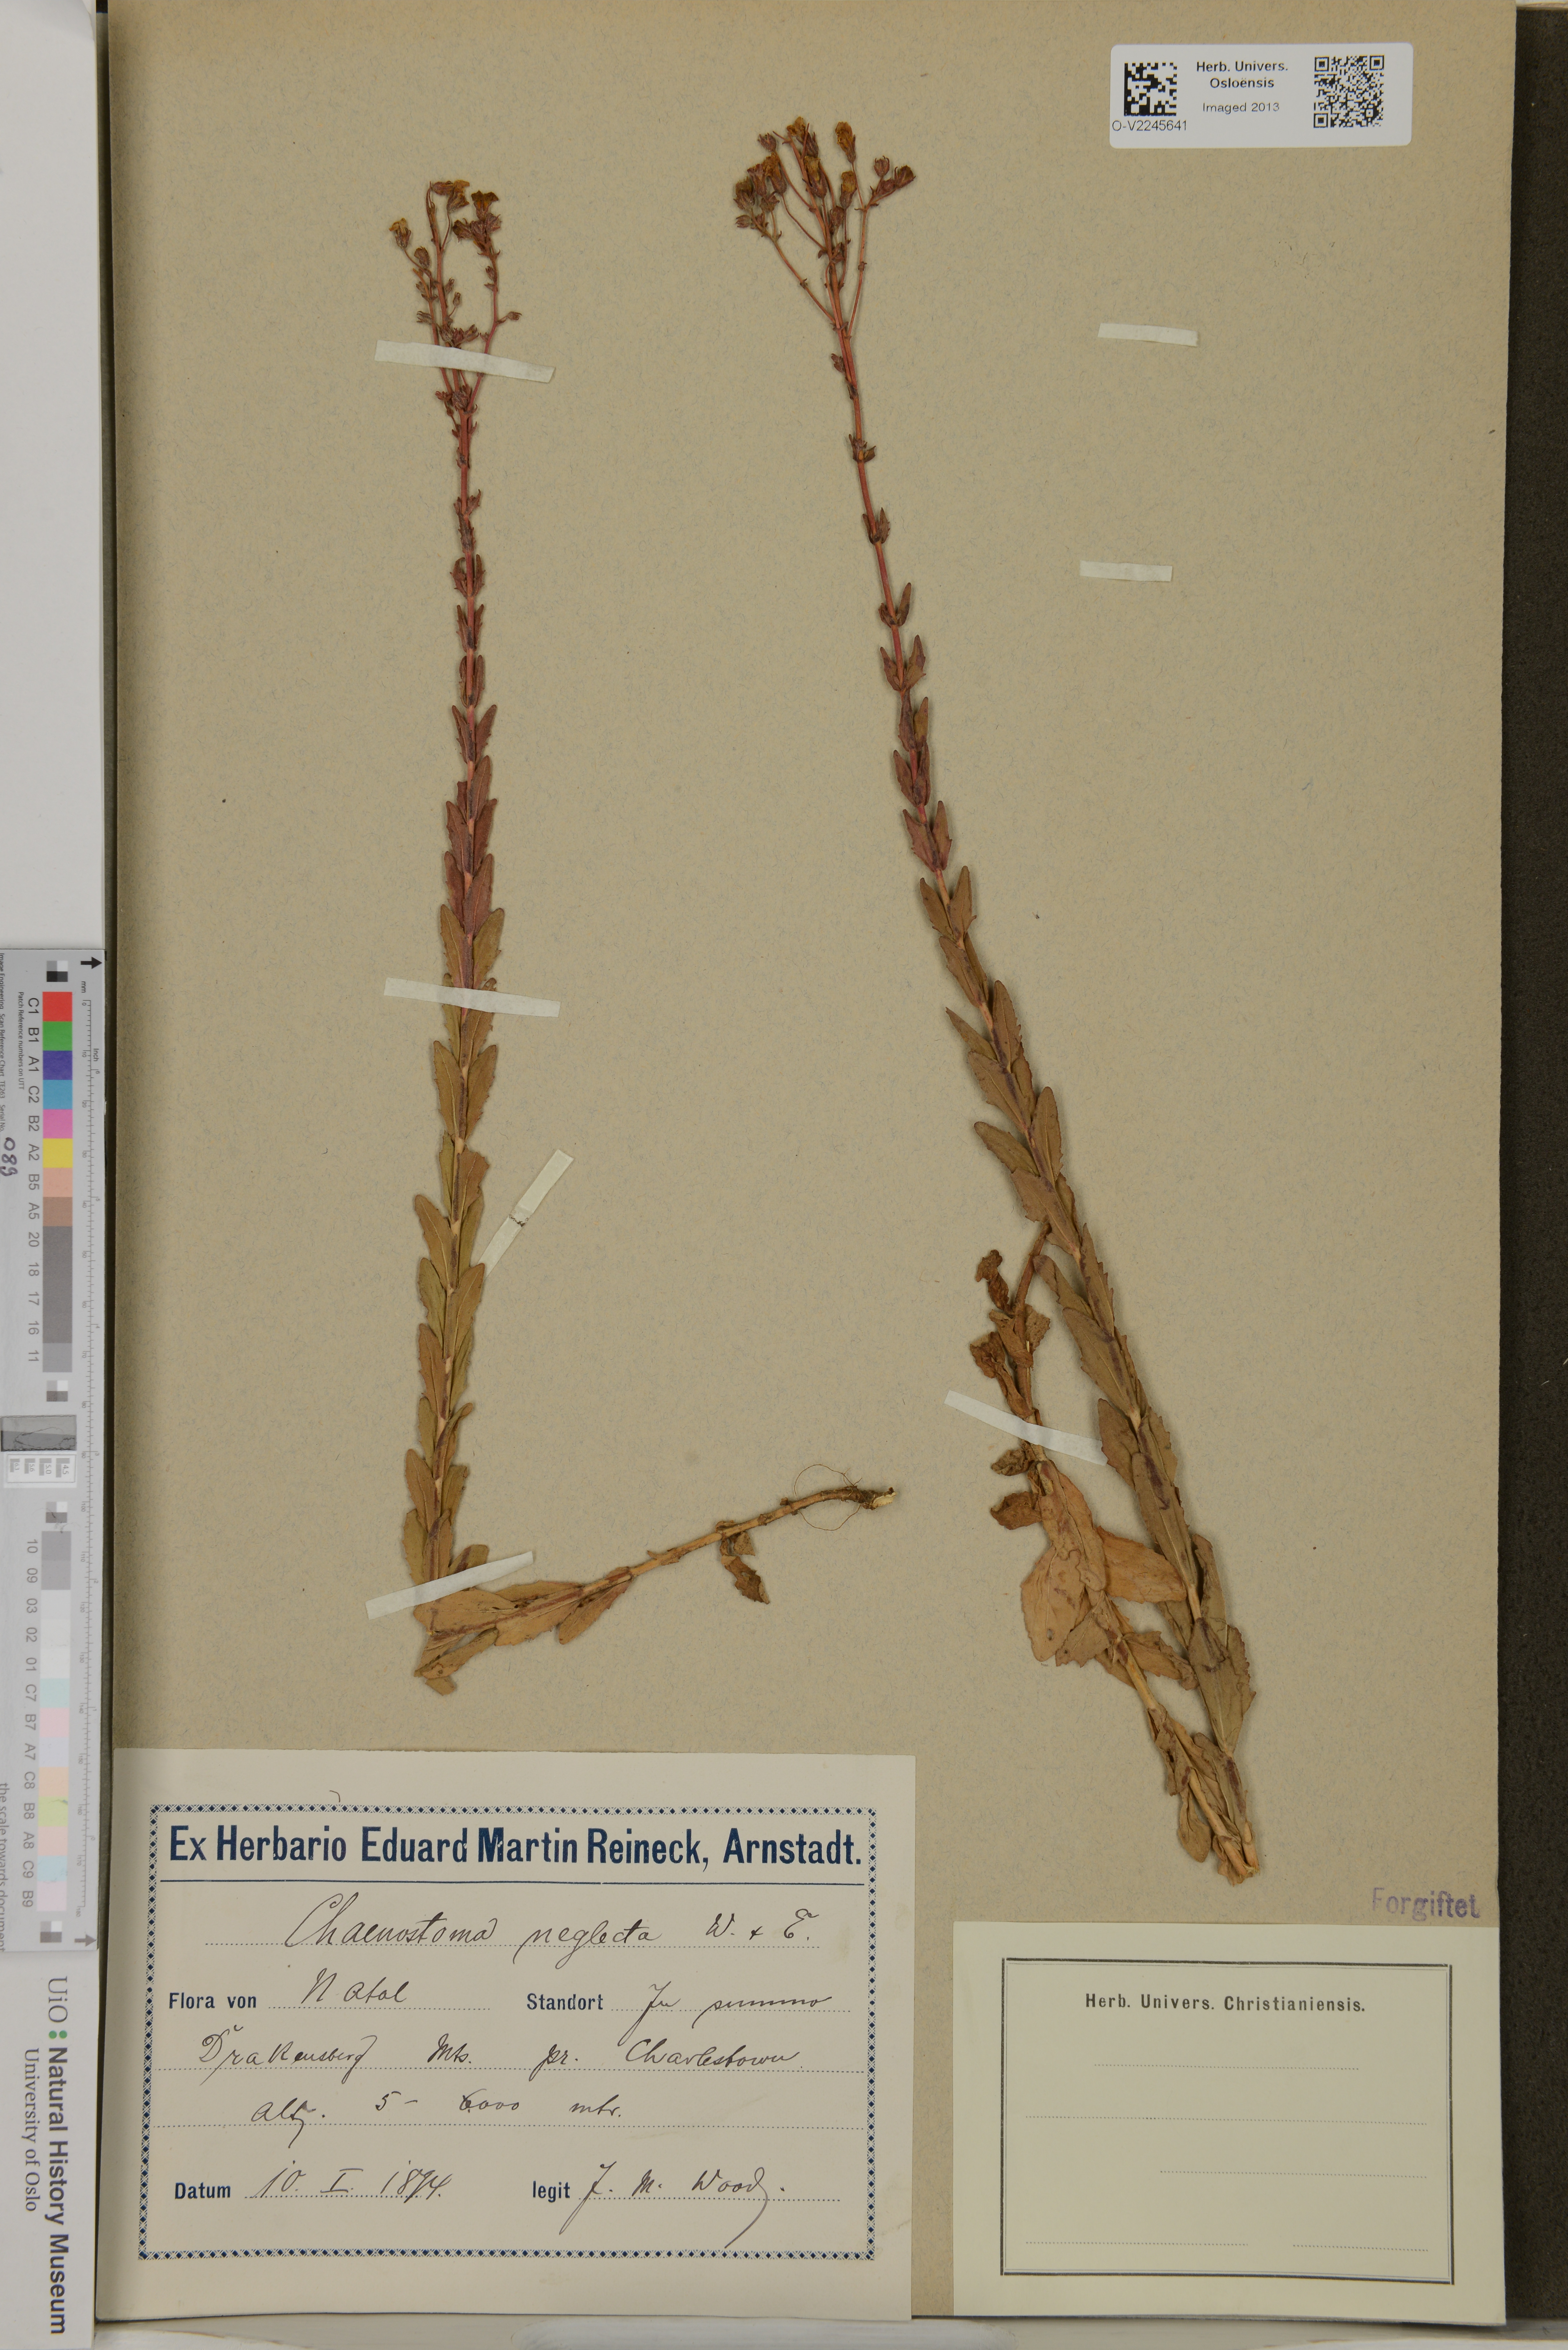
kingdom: Plantae
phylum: Tracheophyta
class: Magnoliopsida
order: Lamiales
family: Scrophulariaceae
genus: Chaenostoma
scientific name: Chaenostoma neglectum
